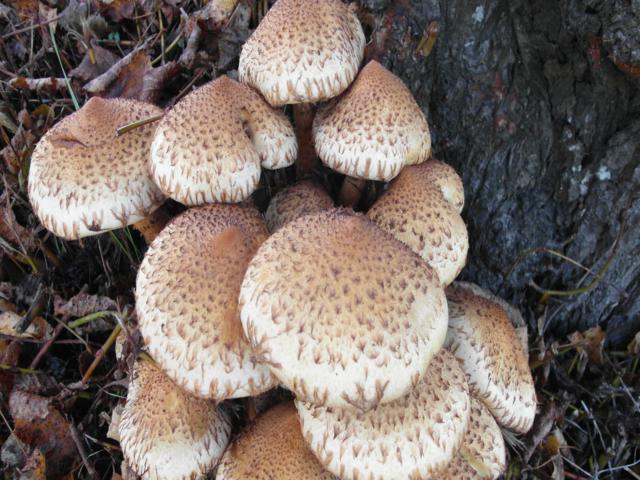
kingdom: Fungi
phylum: Basidiomycota
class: Agaricomycetes
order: Agaricales
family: Strophariaceae
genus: Pholiota
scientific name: Pholiota squarrosa
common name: krumskællet skælhat
